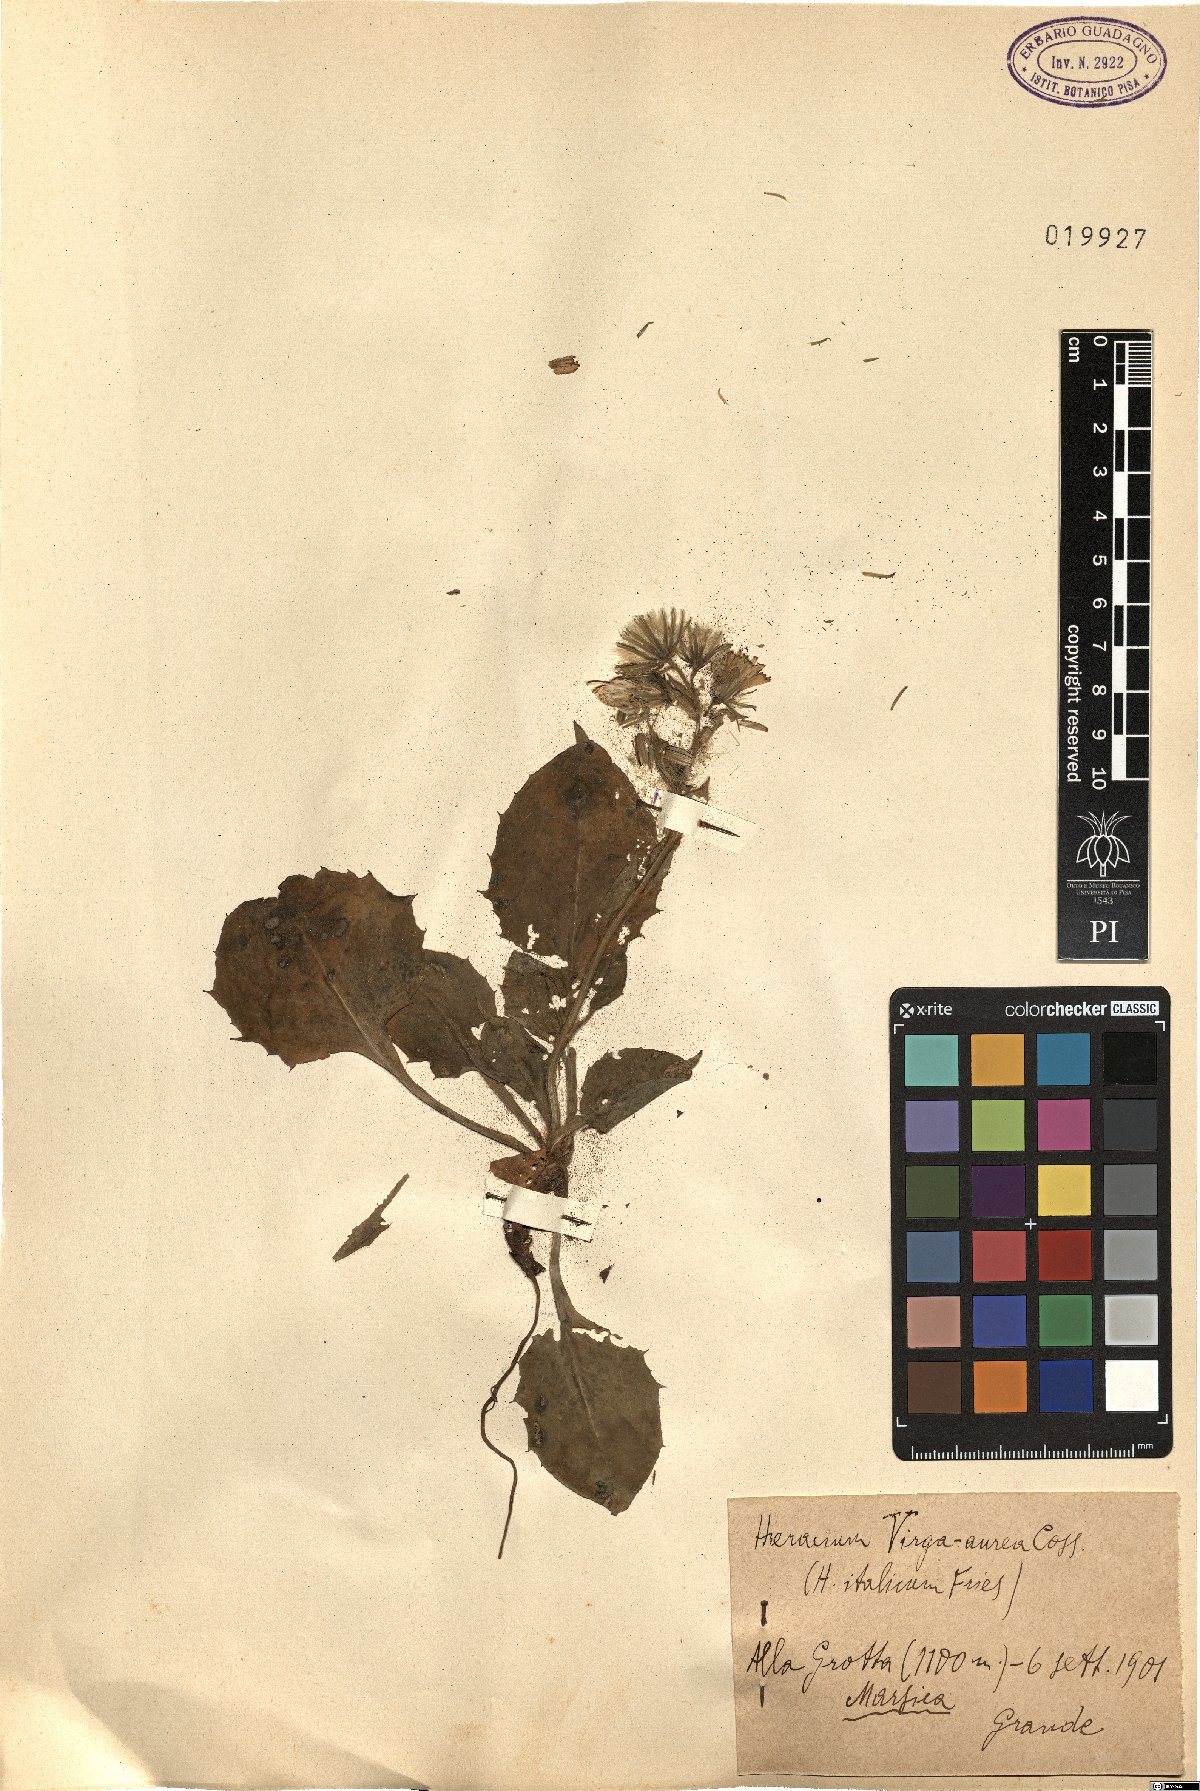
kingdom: Plantae
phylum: Tracheophyta
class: Magnoliopsida
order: Asterales
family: Asteraceae
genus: Hieracium
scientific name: Hieracium racemosum
